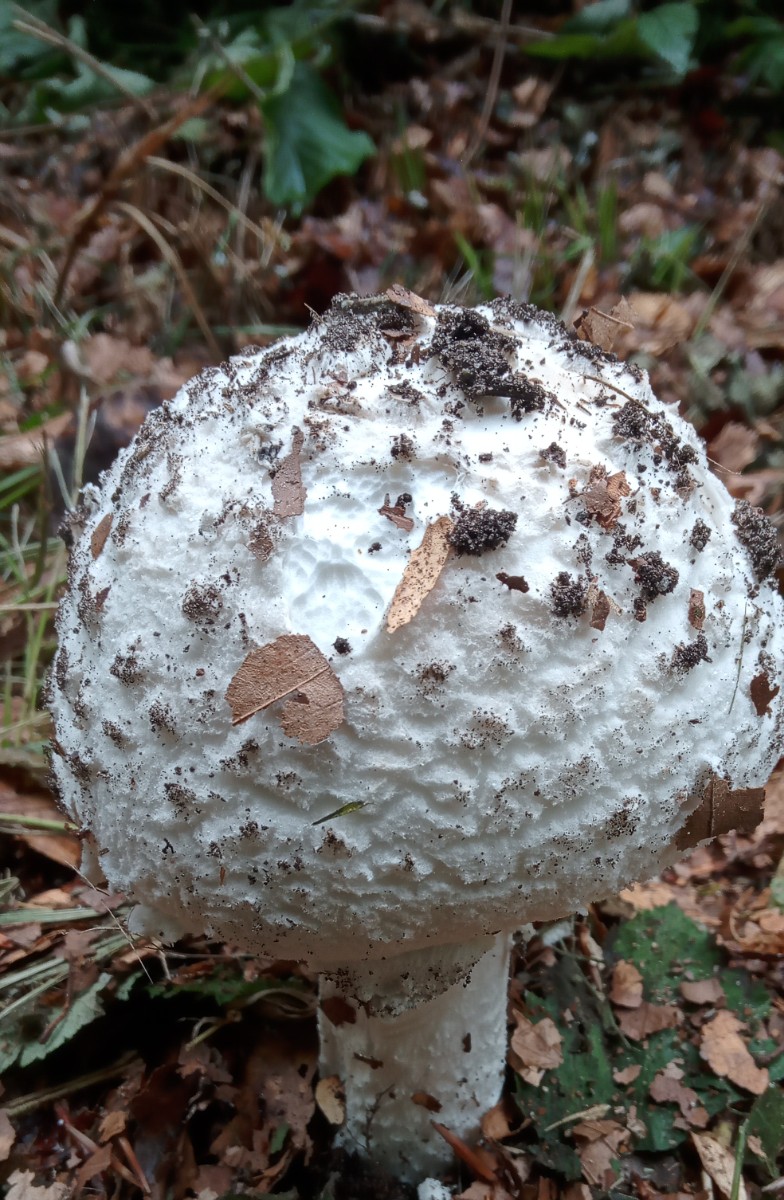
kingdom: Fungi
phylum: Basidiomycota
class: Agaricomycetes
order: Agaricales
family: Amanitaceae
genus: Amanita
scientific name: Amanita
